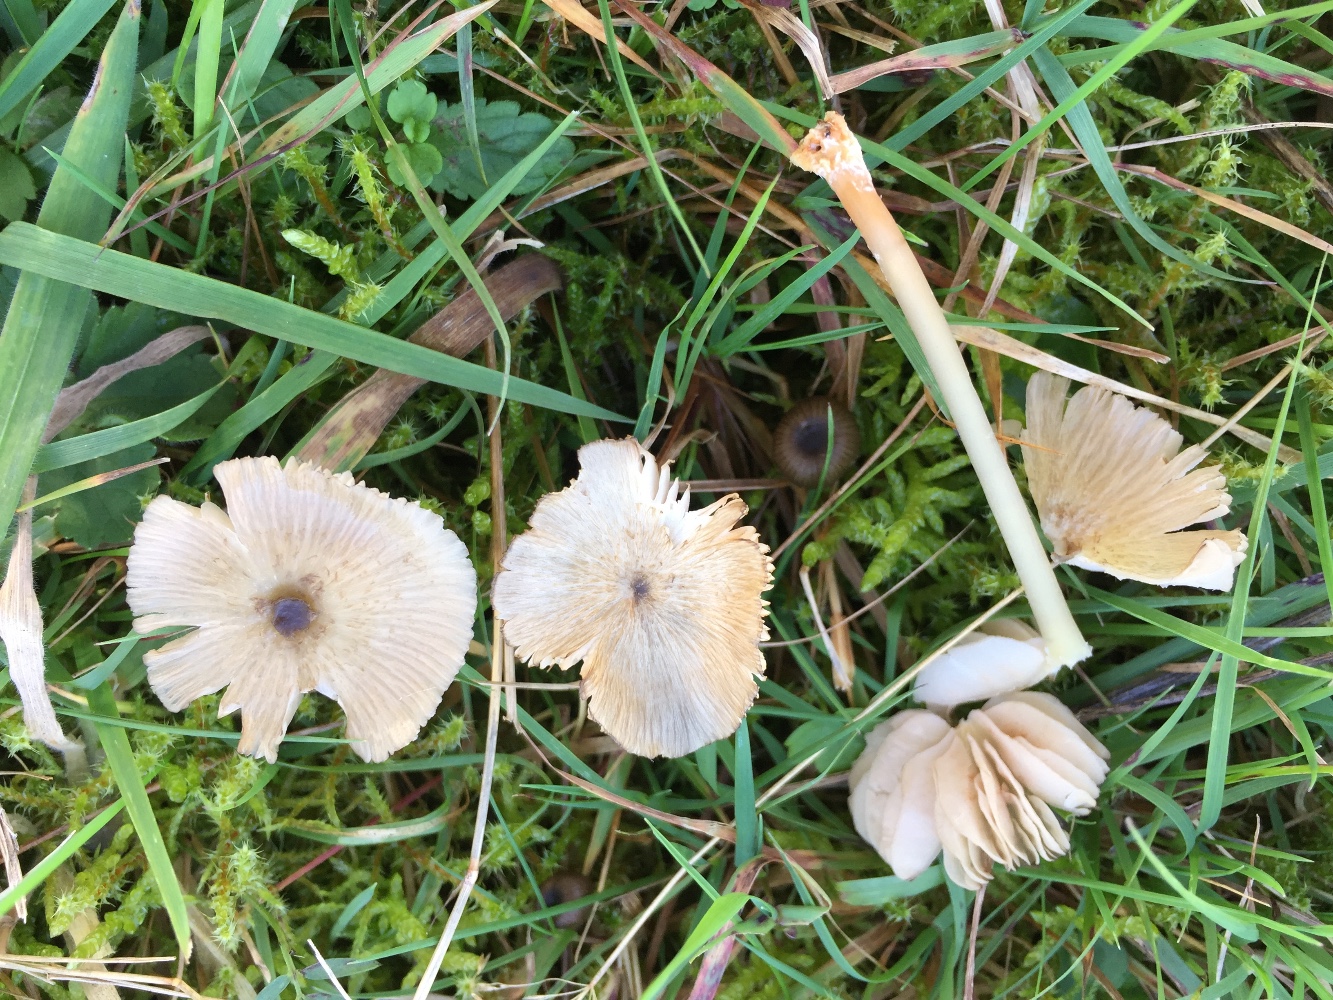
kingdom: Fungi
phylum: Basidiomycota
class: Agaricomycetes
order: Agaricales
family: Entolomataceae
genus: Entoloma
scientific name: Entoloma exile
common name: rødplettet rødblad
